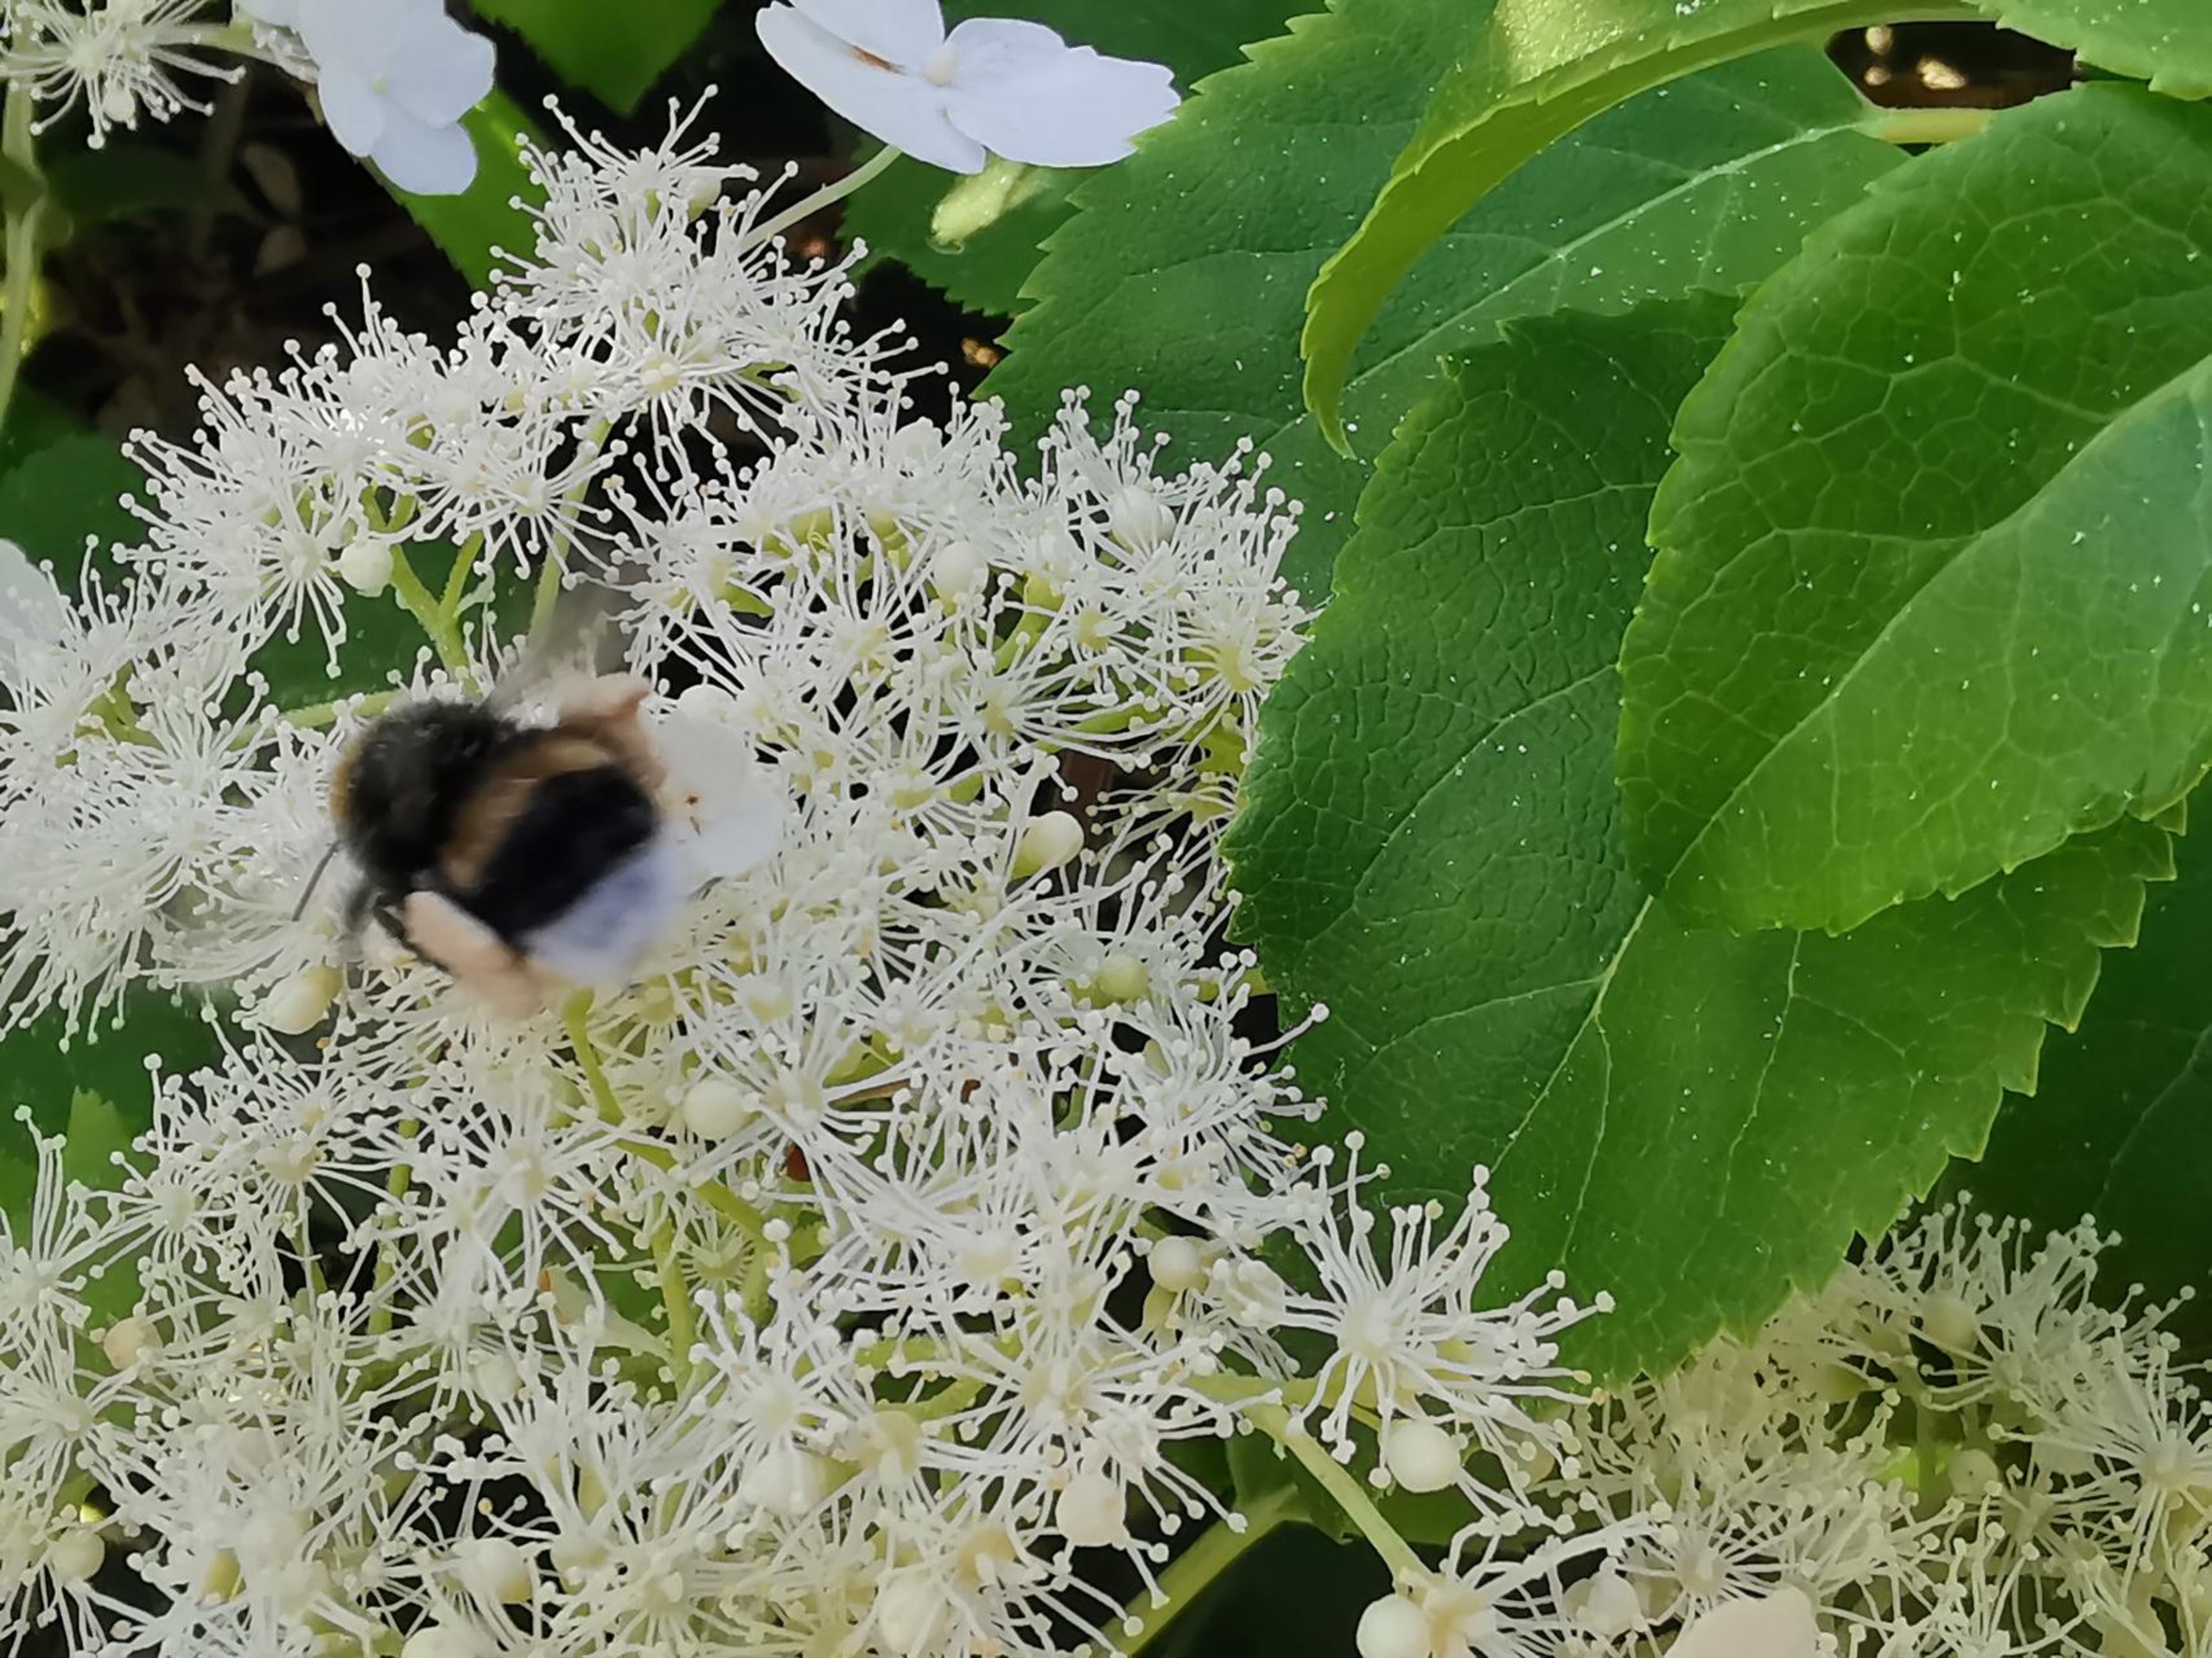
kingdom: Animalia
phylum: Arthropoda
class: Insecta
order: Hymenoptera
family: Apidae
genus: Bombus
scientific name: Bombus
